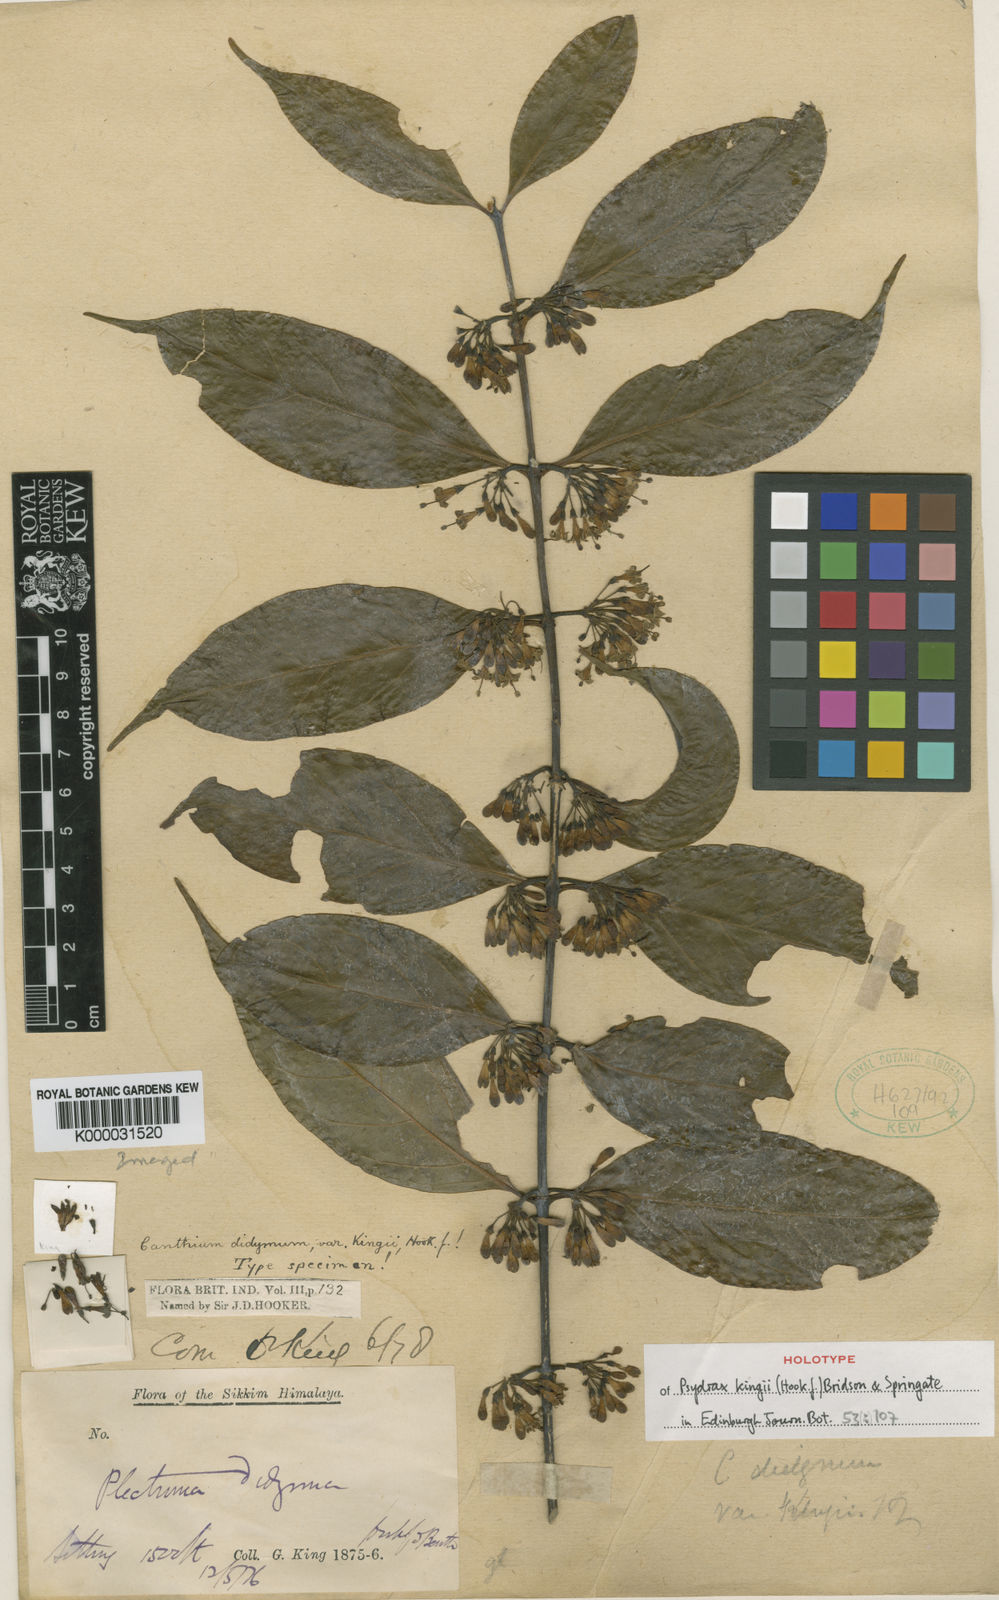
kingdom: Plantae
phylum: Tracheophyta
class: Magnoliopsida
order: Gentianales
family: Rubiaceae
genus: Psydrax
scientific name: Psydrax kingii
